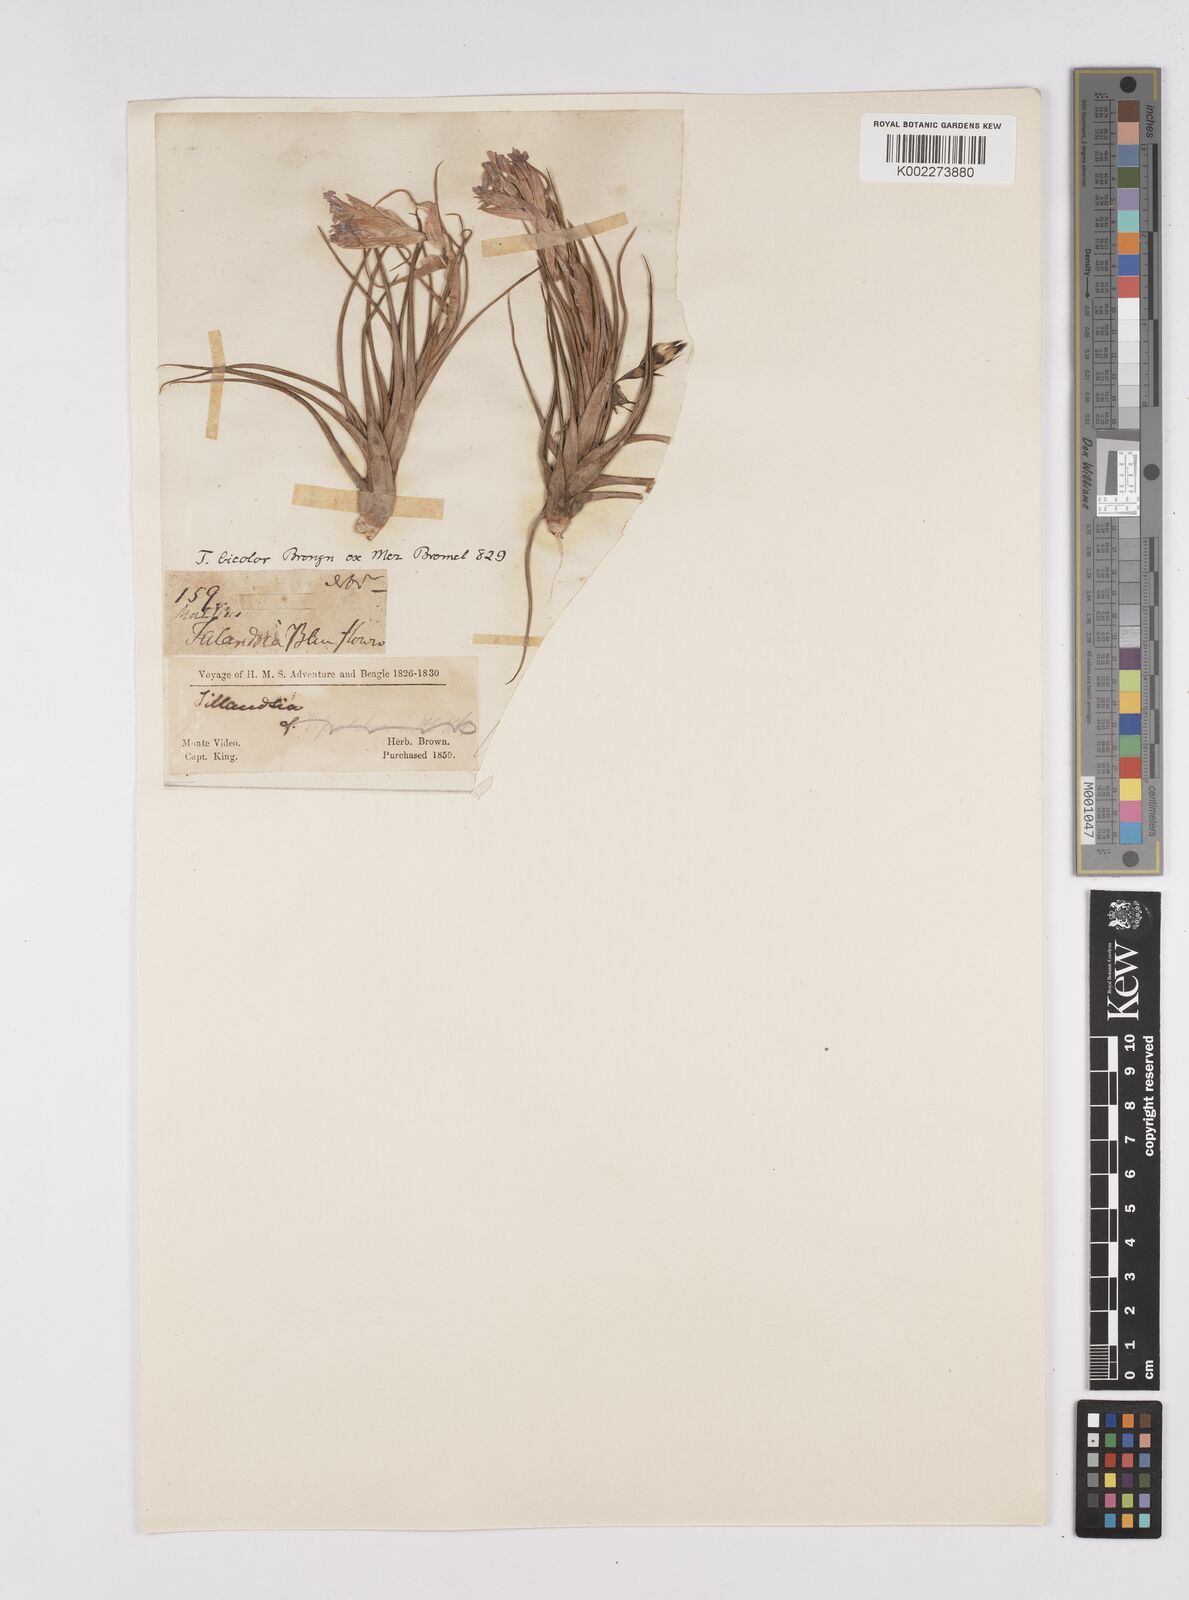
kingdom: Plantae
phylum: Tracheophyta
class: Liliopsida
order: Poales
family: Bromeliaceae
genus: Tillandsia
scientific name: Tillandsia tenuifolia
